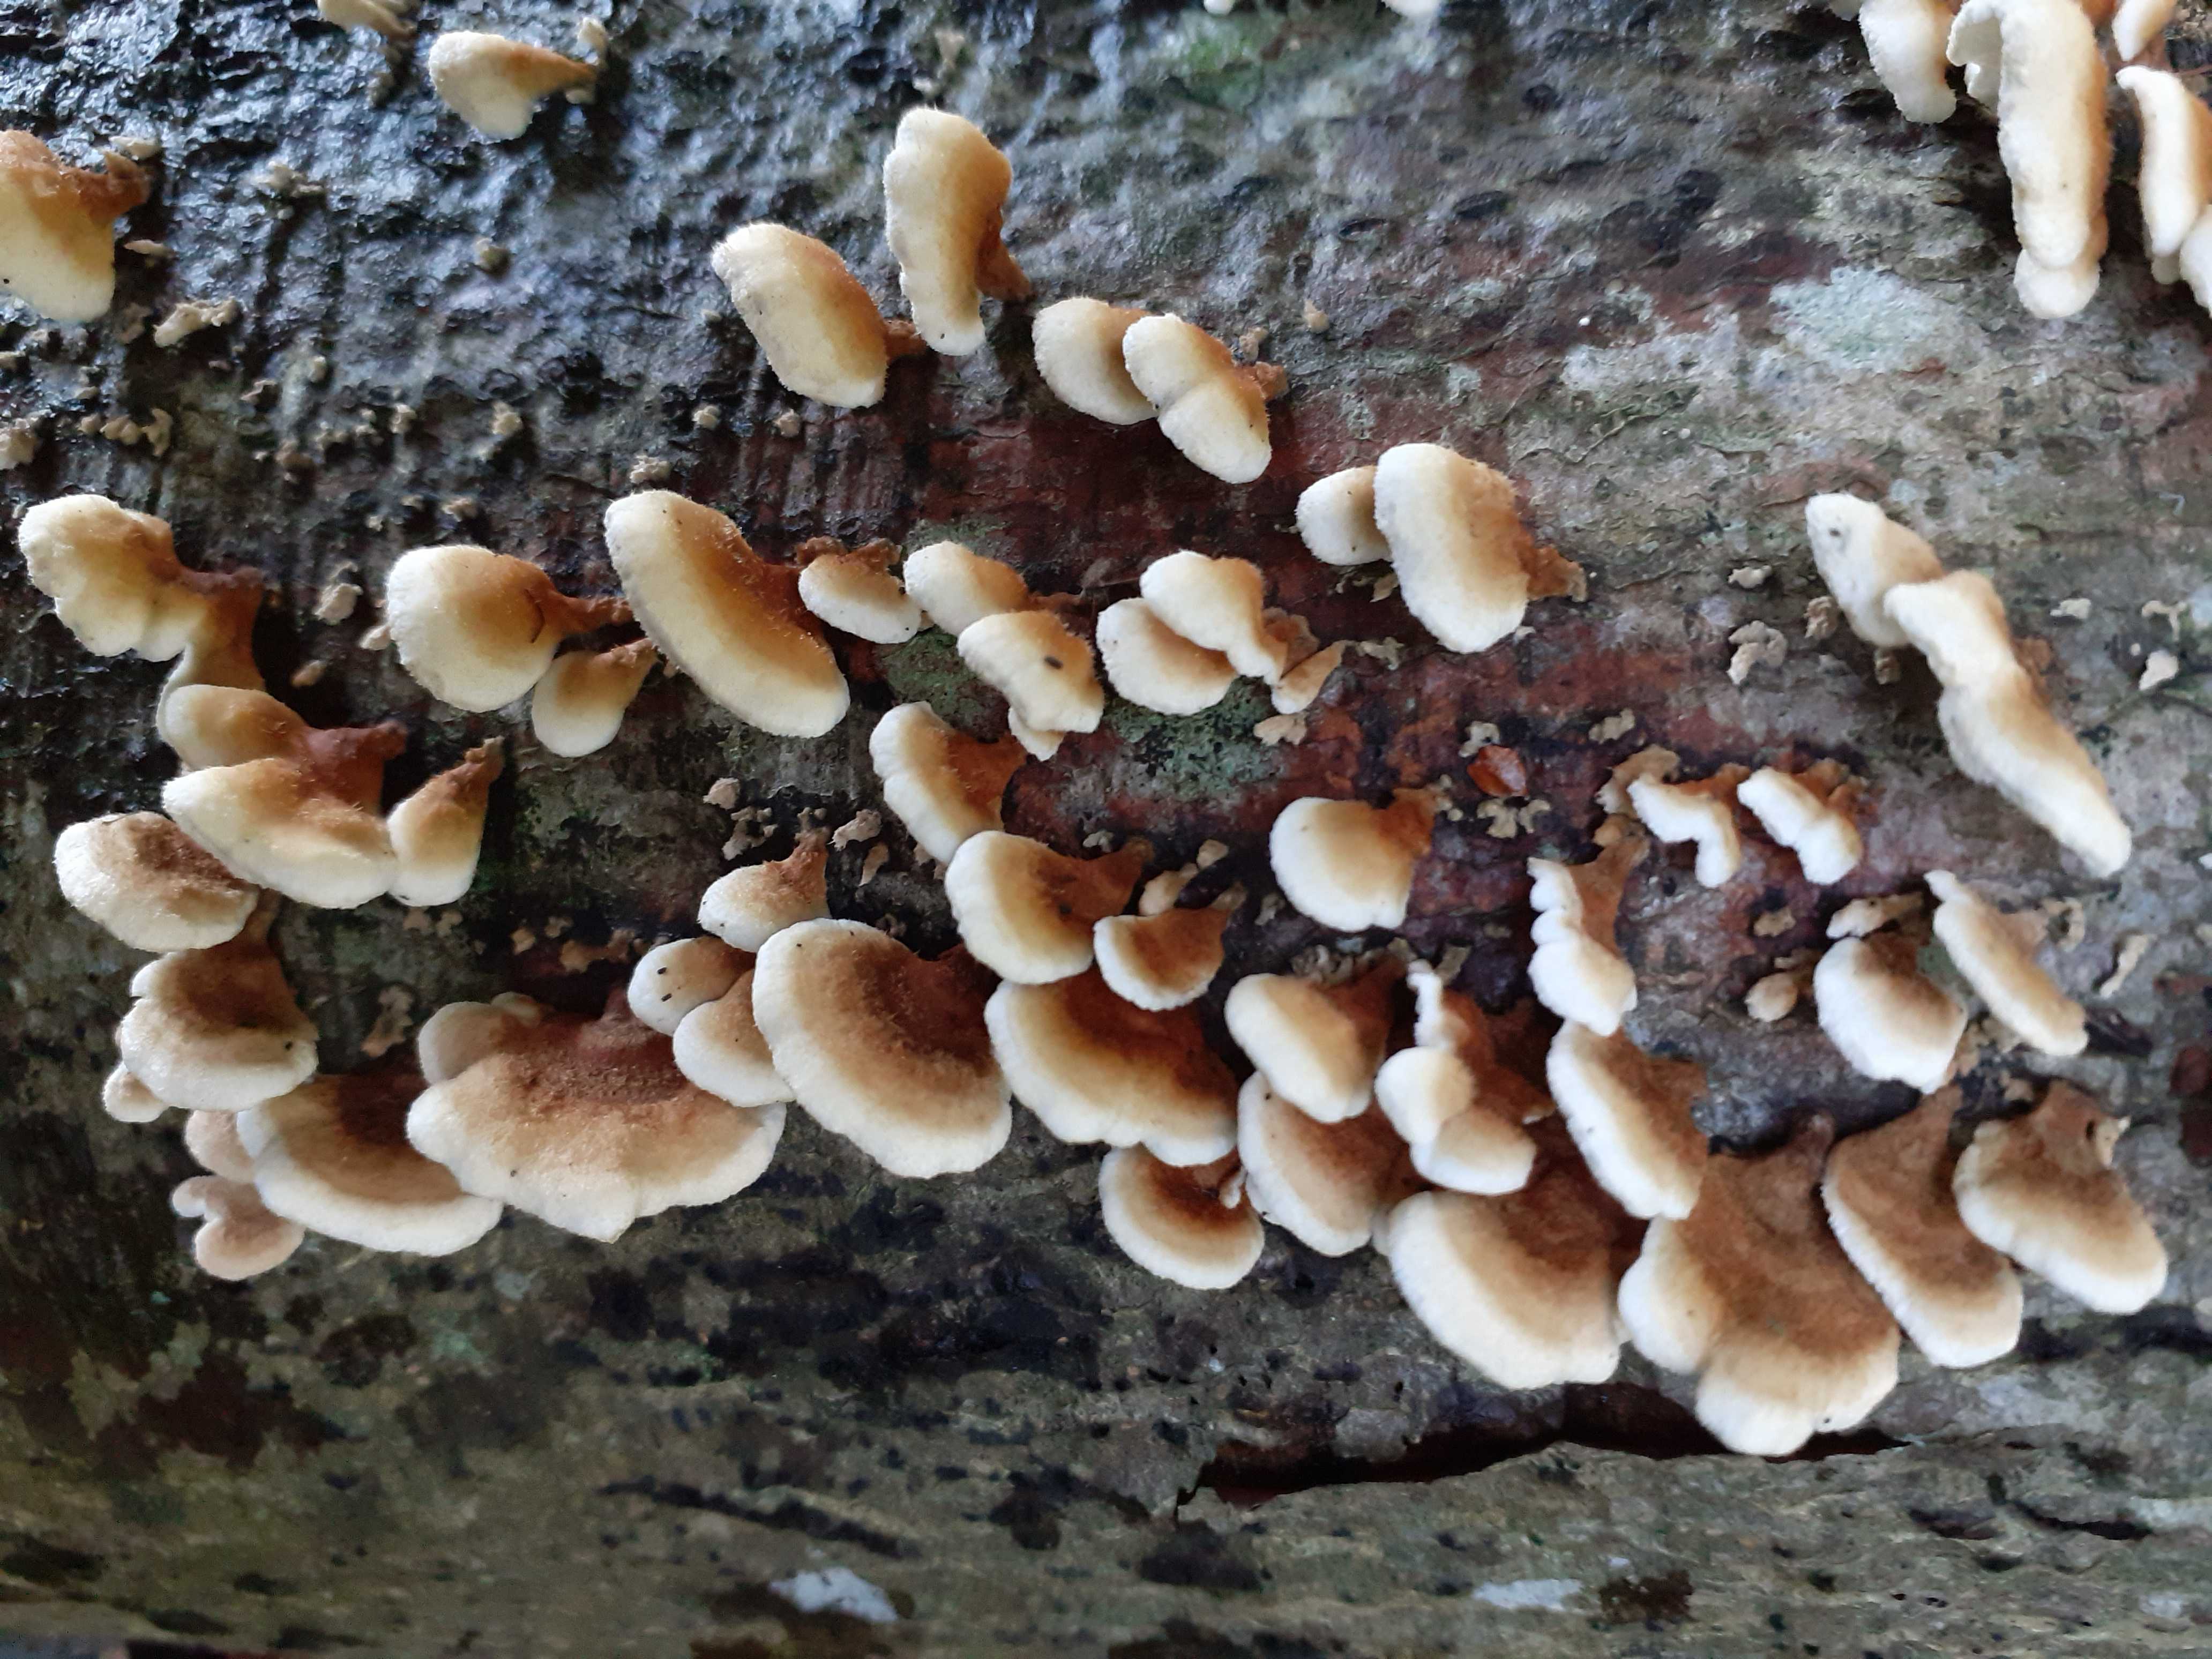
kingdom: Fungi
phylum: Basidiomycota
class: Agaricomycetes
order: Amylocorticiales
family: Amylocorticiaceae
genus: Plicaturopsis
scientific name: Plicaturopsis crispa
